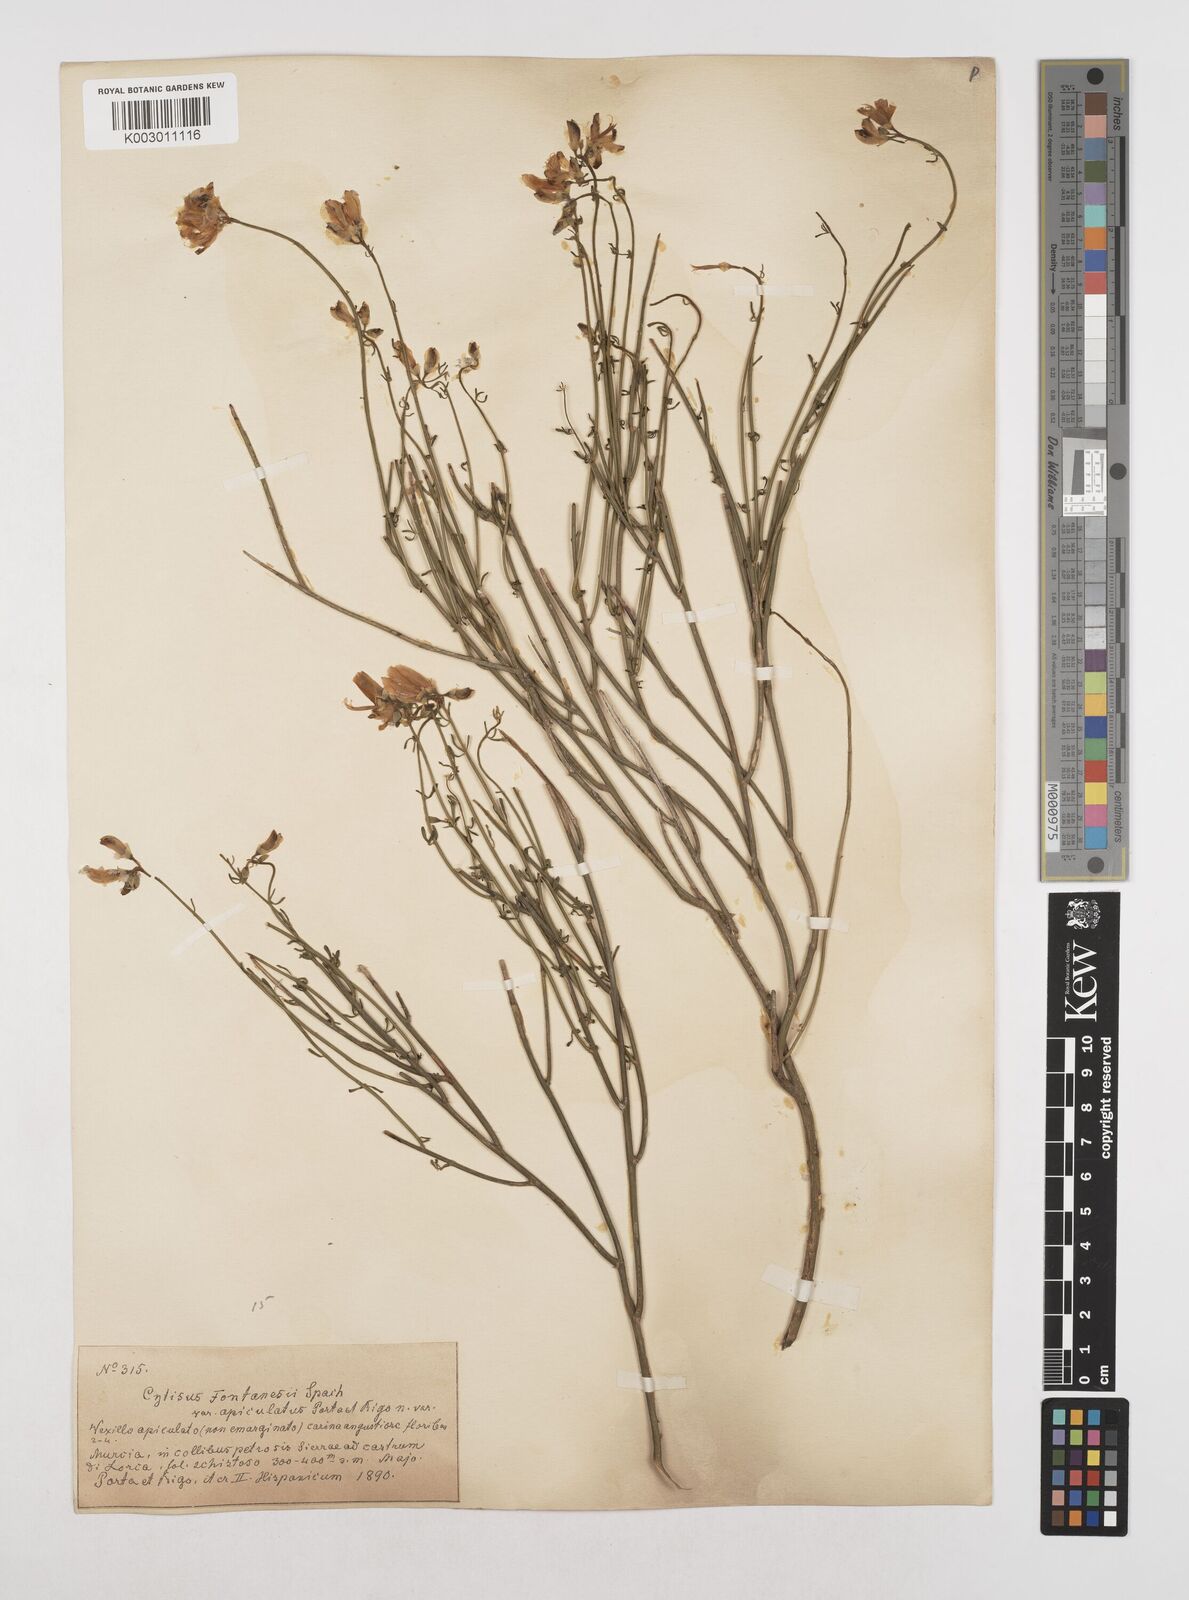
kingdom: Plantae
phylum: Tracheophyta
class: Magnoliopsida
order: Fabales
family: Fabaceae
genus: Cytisus
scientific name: Cytisus fontanesii
